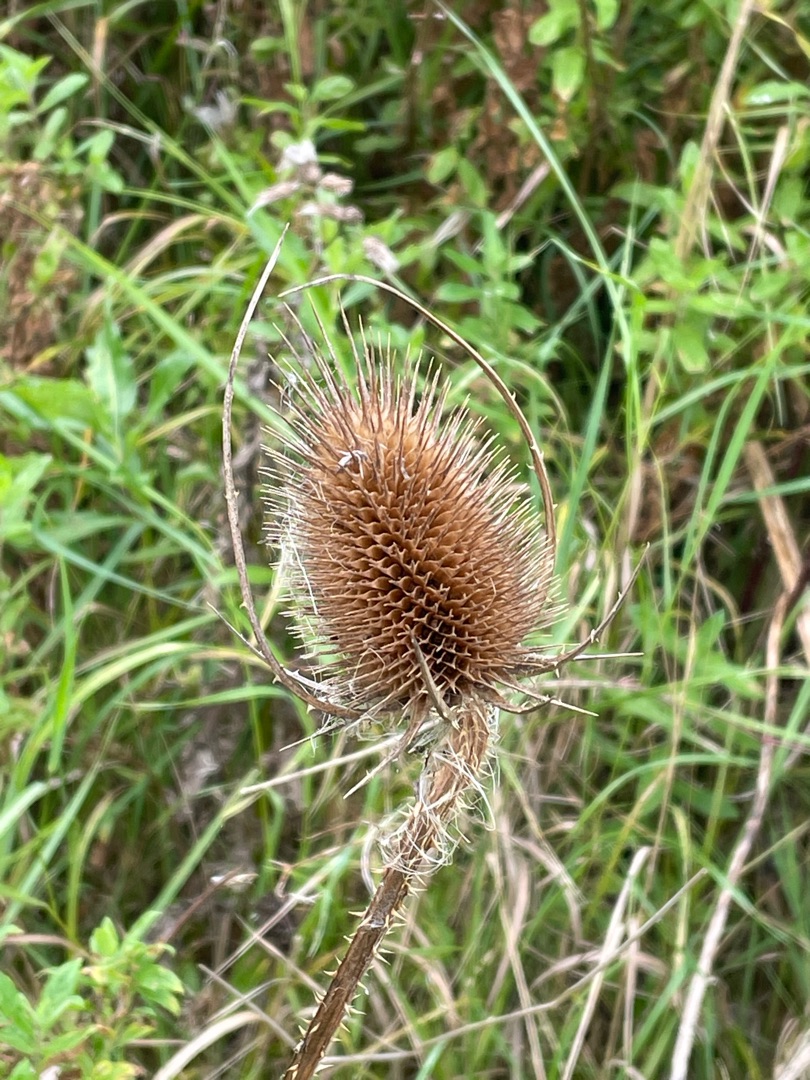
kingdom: Plantae
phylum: Tracheophyta
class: Magnoliopsida
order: Dipsacales
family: Caprifoliaceae
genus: Dipsacus
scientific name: Dipsacus fullonum
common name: Gærde-kartebolle
